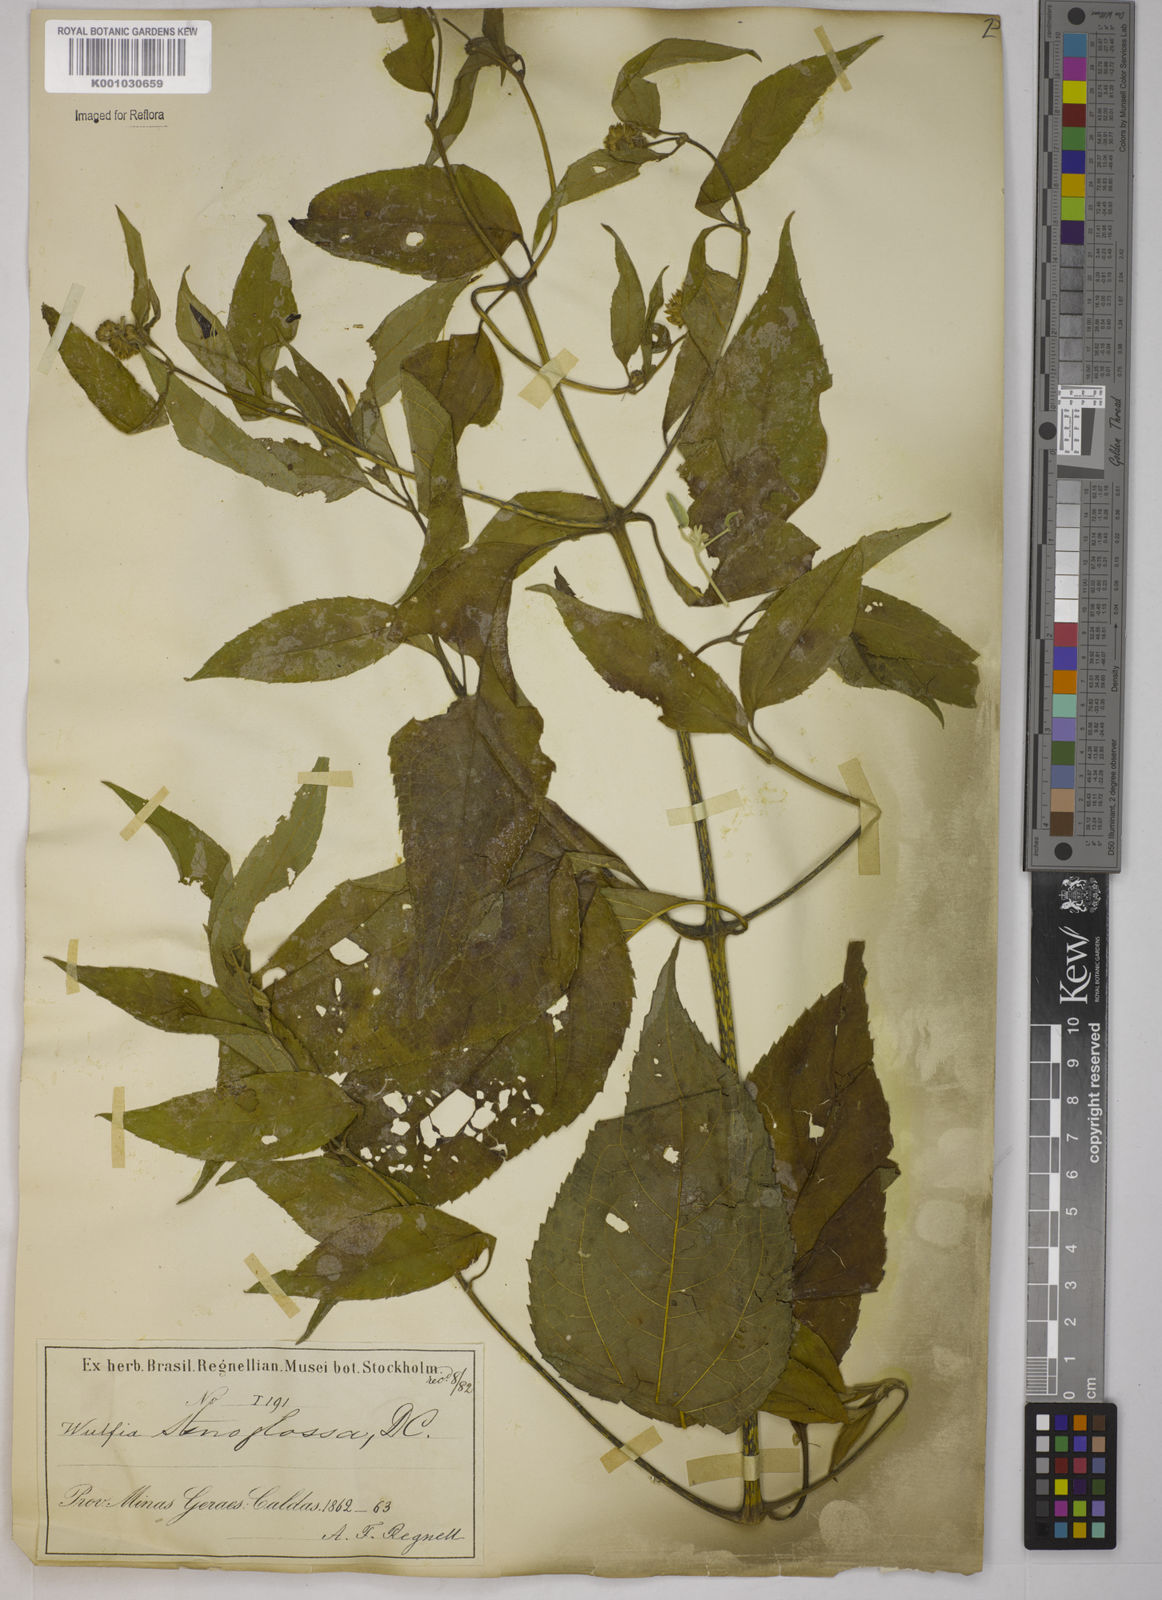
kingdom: Plantae
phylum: Tracheophyta
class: Magnoliopsida
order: Asterales
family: Asteraceae
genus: Tilesia
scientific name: Tilesia baccata
